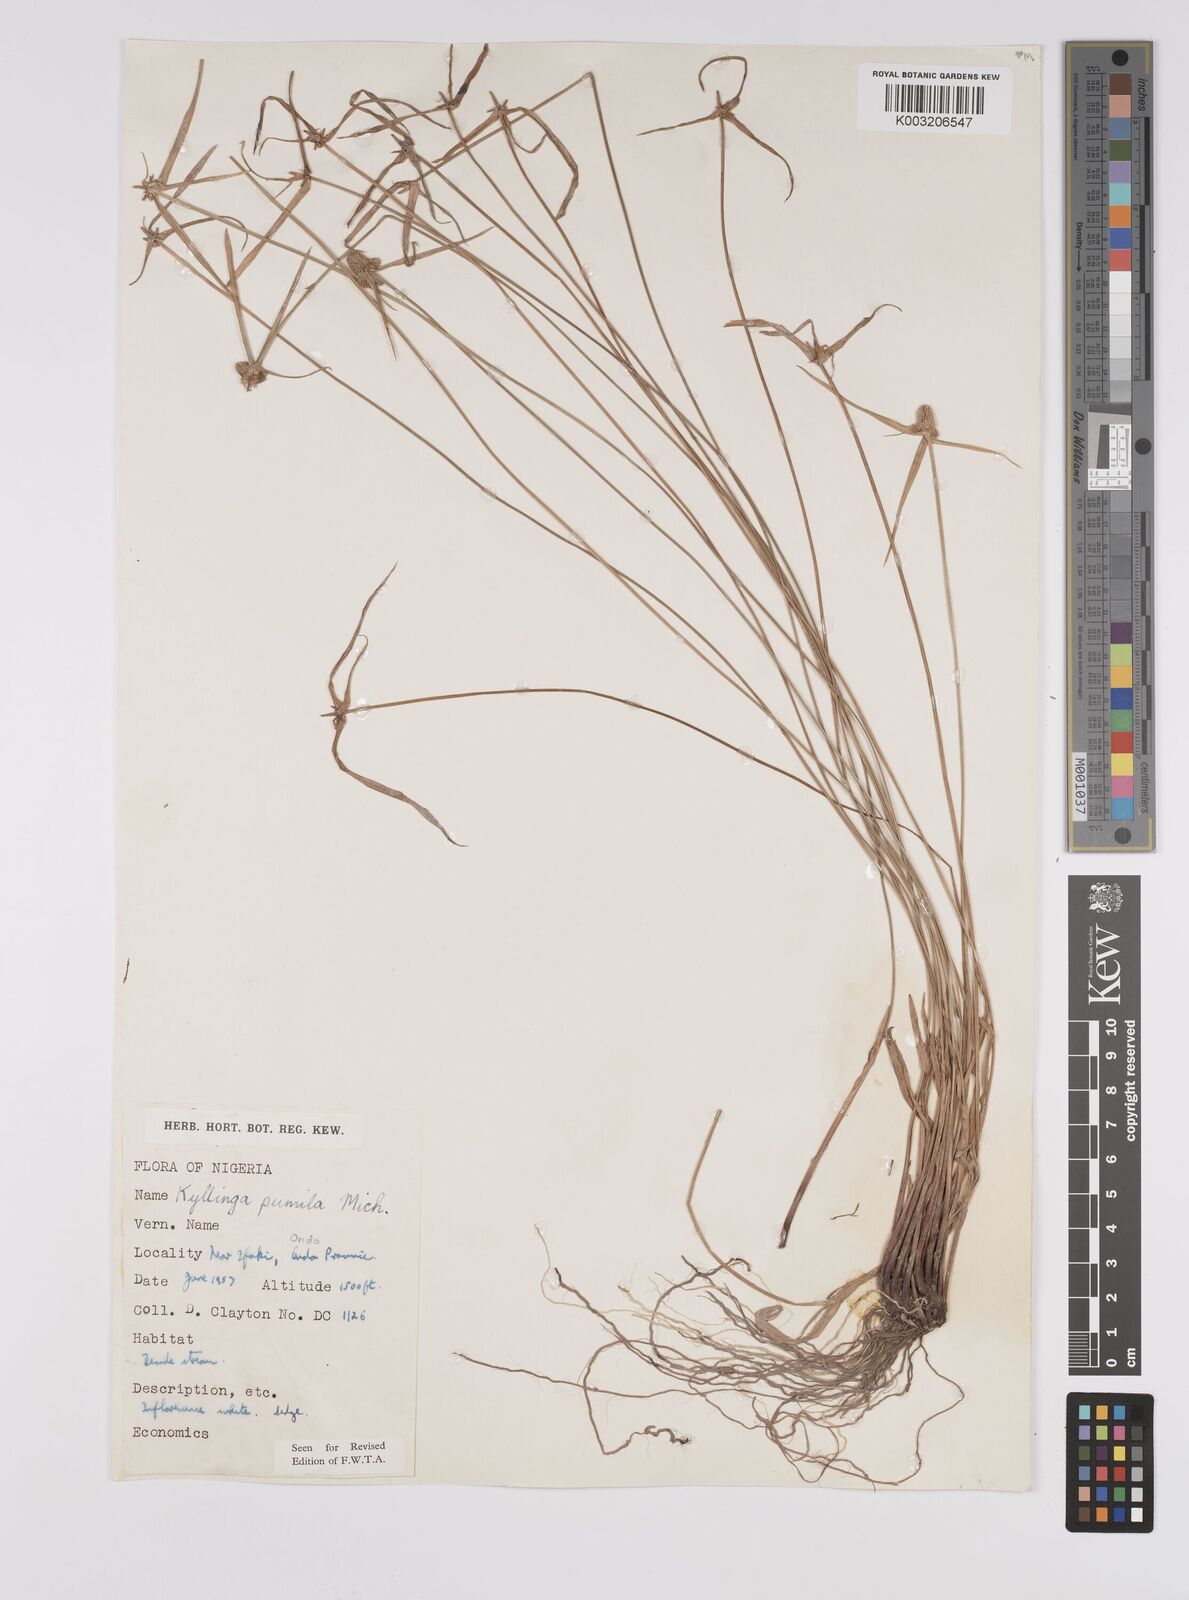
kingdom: Plantae
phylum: Tracheophyta
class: Liliopsida
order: Poales
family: Cyperaceae
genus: Cyperus
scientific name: Cyperus
